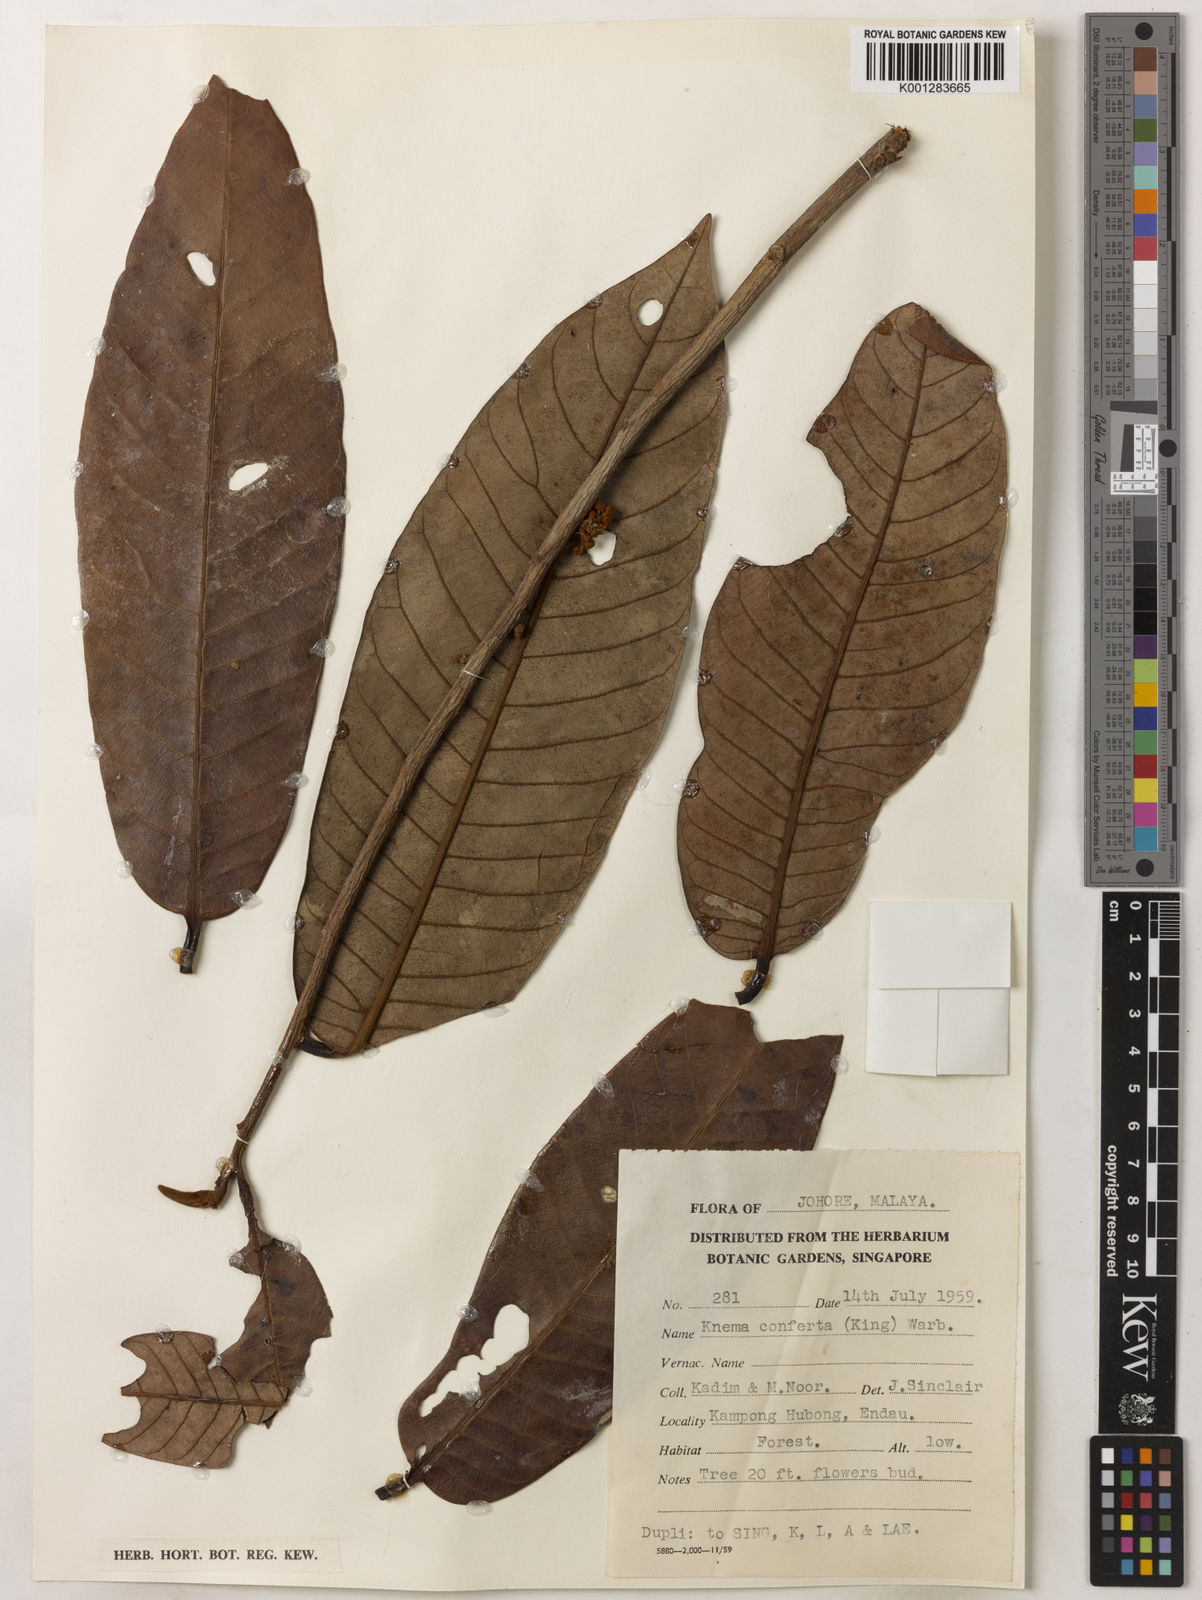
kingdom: Plantae
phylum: Tracheophyta
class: Magnoliopsida
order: Magnoliales
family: Myristicaceae
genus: Knema
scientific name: Knema conferta
